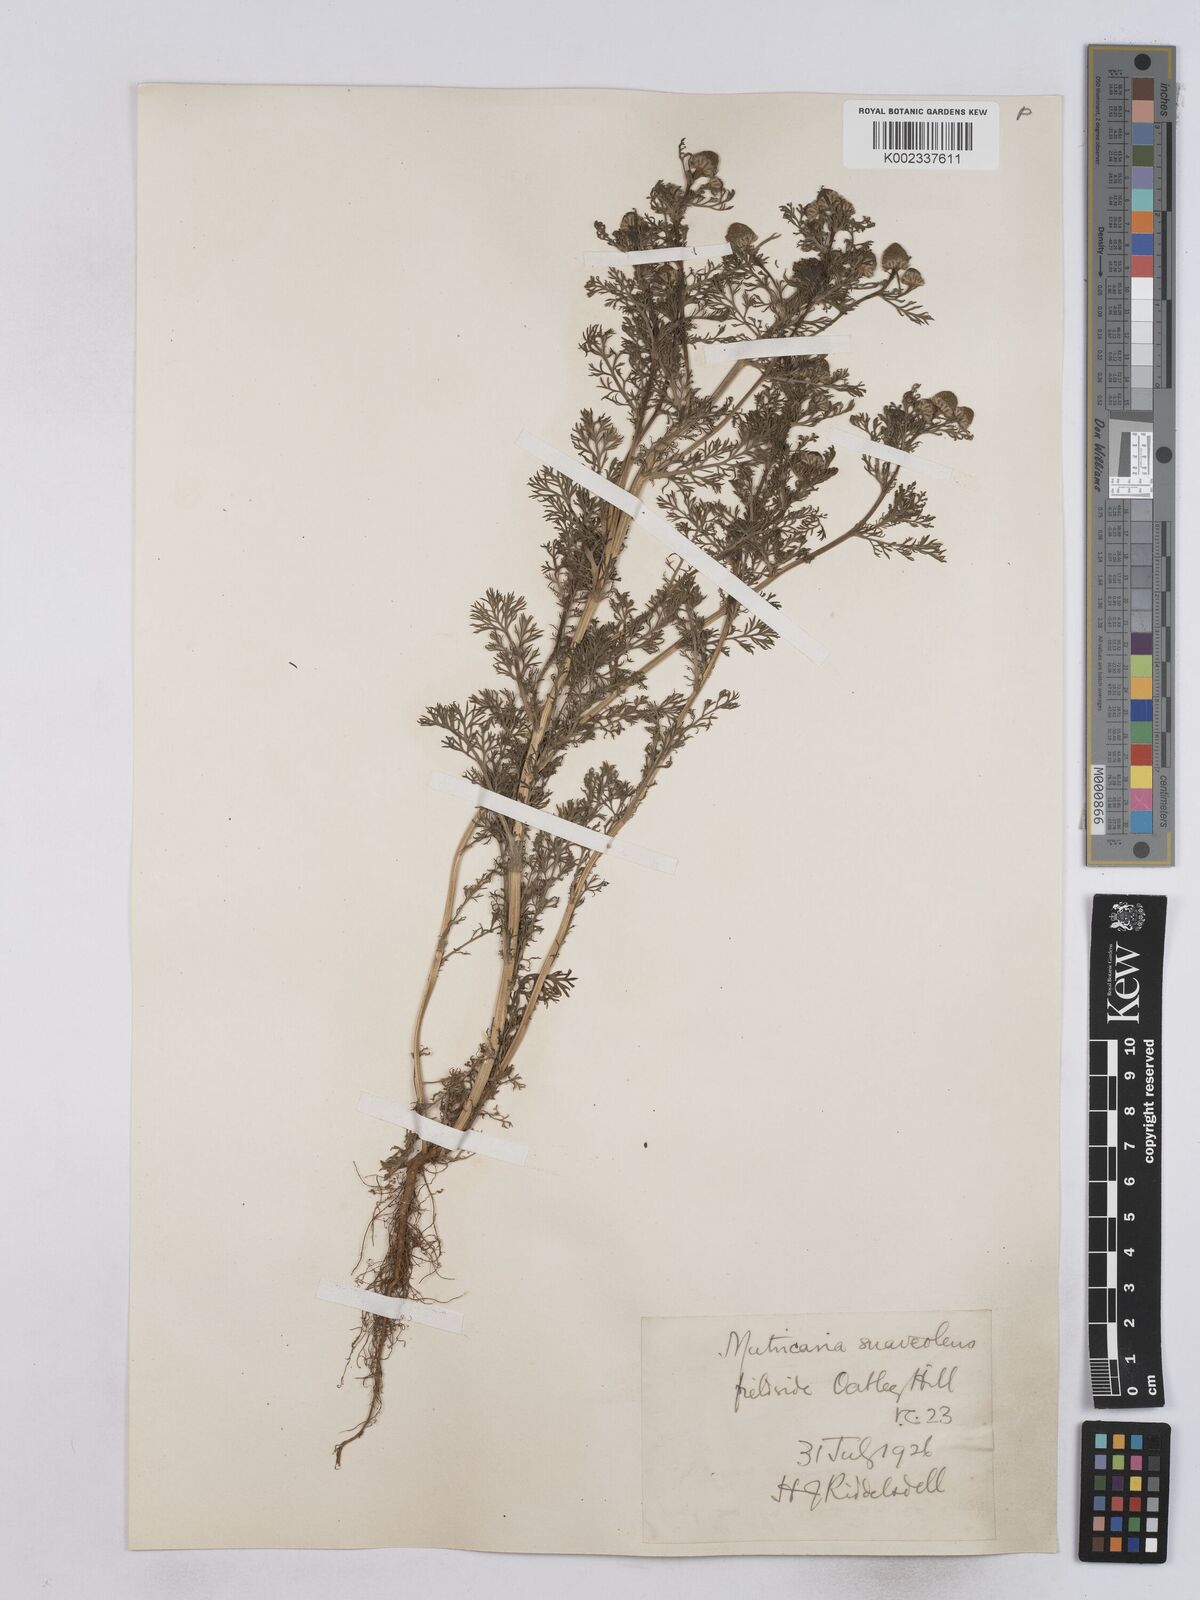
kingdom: Plantae
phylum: Tracheophyta
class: Magnoliopsida
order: Asterales
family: Asteraceae
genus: Matricaria
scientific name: Matricaria discoidea
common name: Disc mayweed
